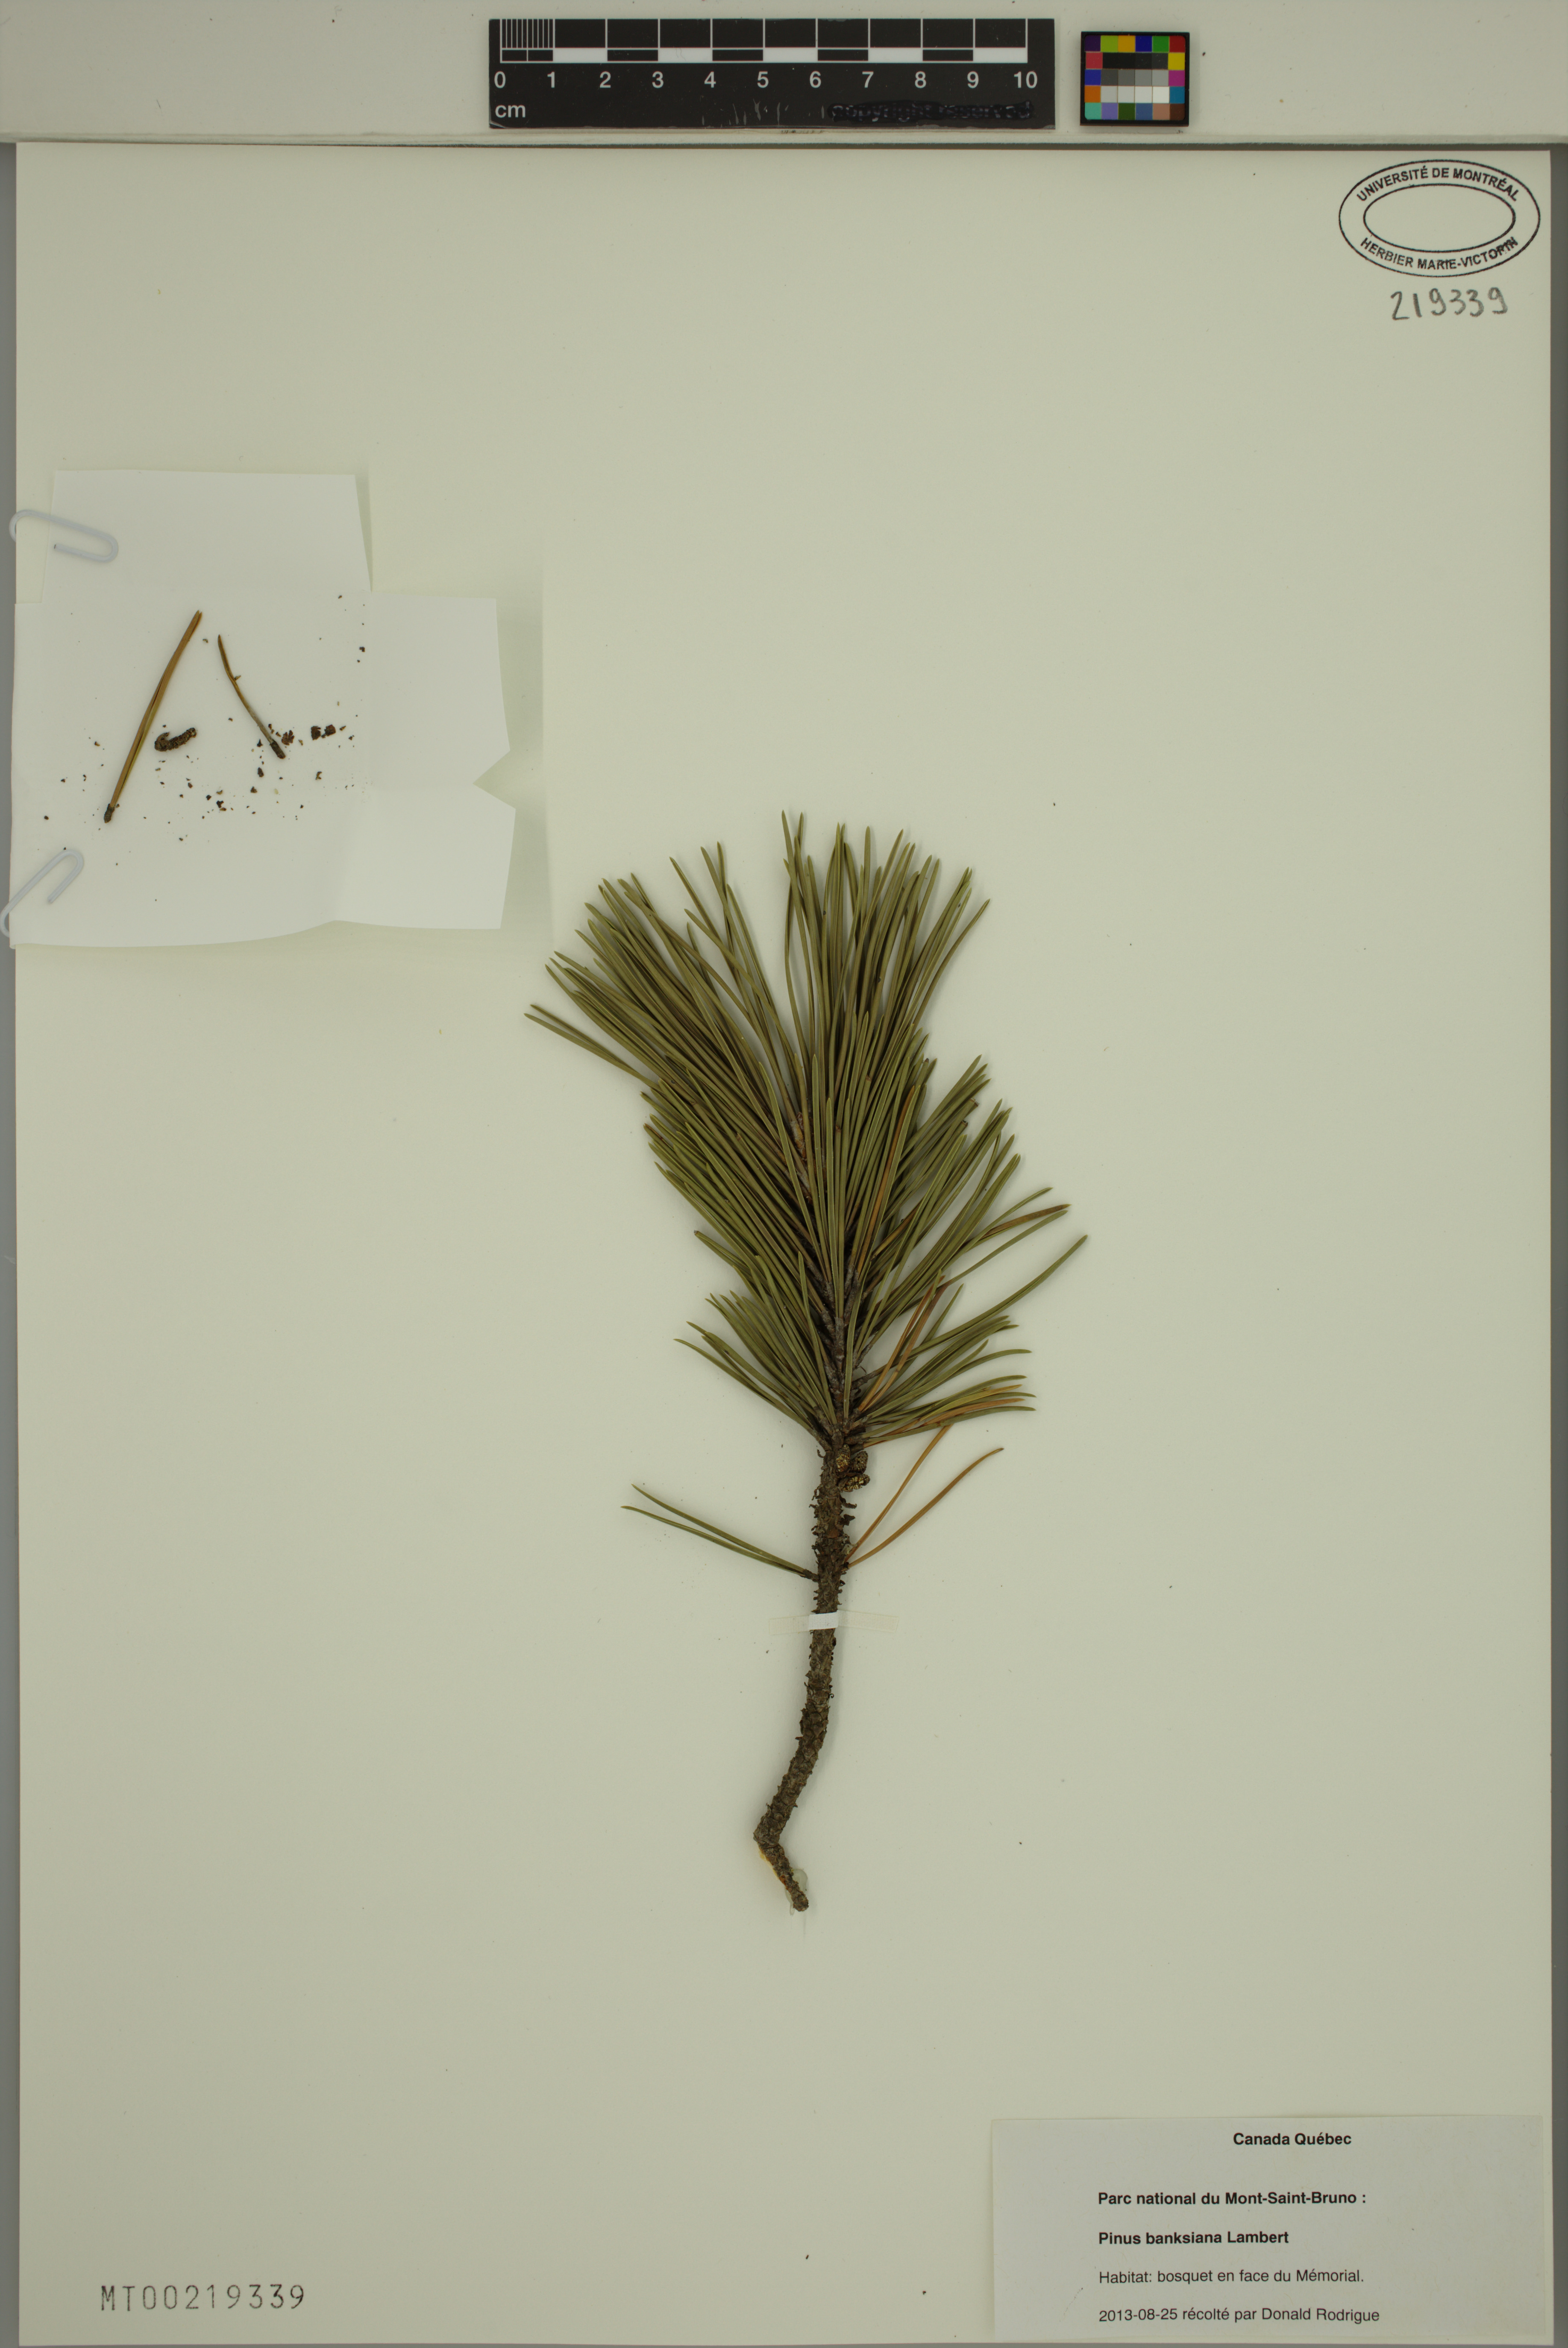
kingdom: Plantae
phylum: Tracheophyta
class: Pinopsida
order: Pinales
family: Pinaceae
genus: Pinus
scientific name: Pinus banksiana
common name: Jack pine
